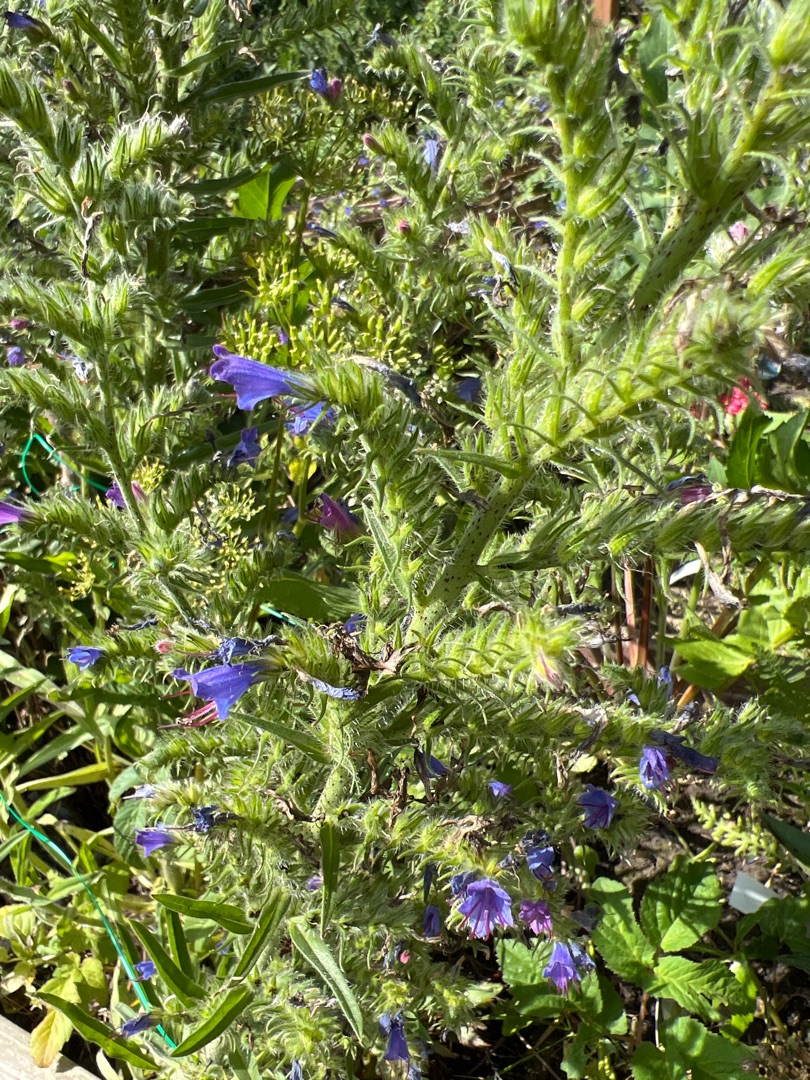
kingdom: Plantae
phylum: Tracheophyta
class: Magnoliopsida
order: Boraginales
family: Boraginaceae
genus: Echium
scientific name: Echium vulgare
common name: Slangehoved
